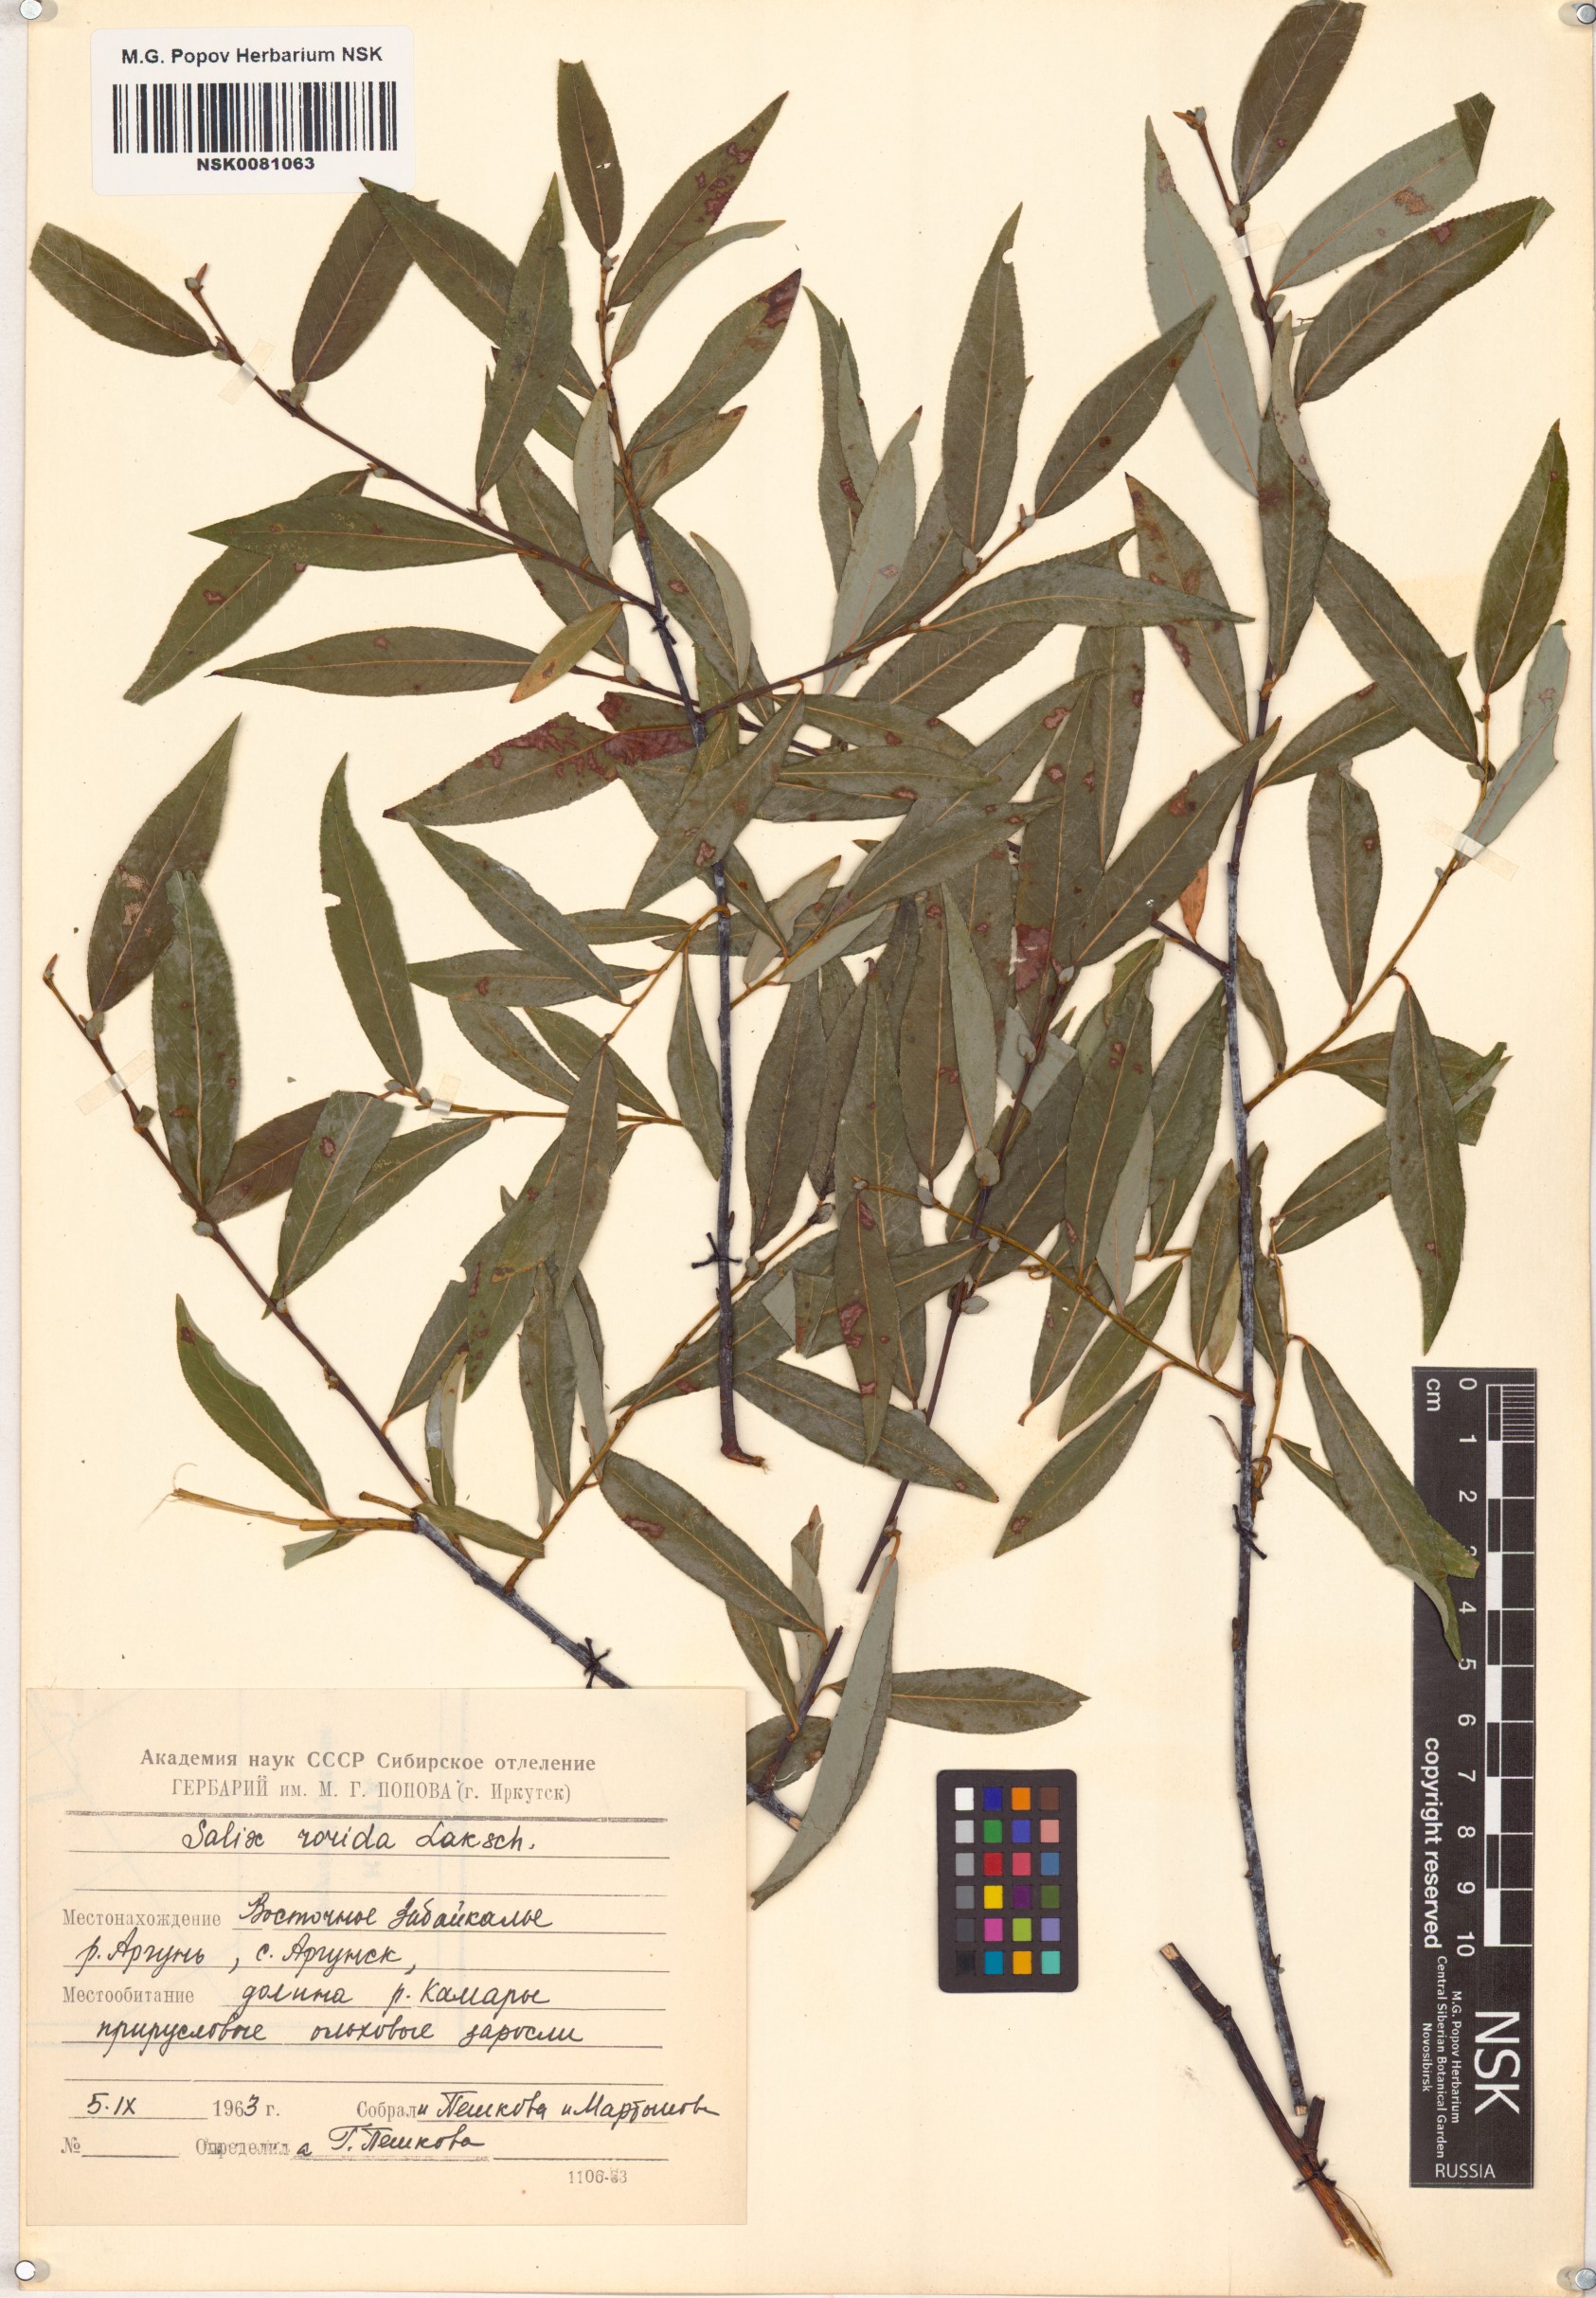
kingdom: Plantae
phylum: Tracheophyta
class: Magnoliopsida
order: Malpighiales
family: Salicaceae
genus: Salix
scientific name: Salix rorida
